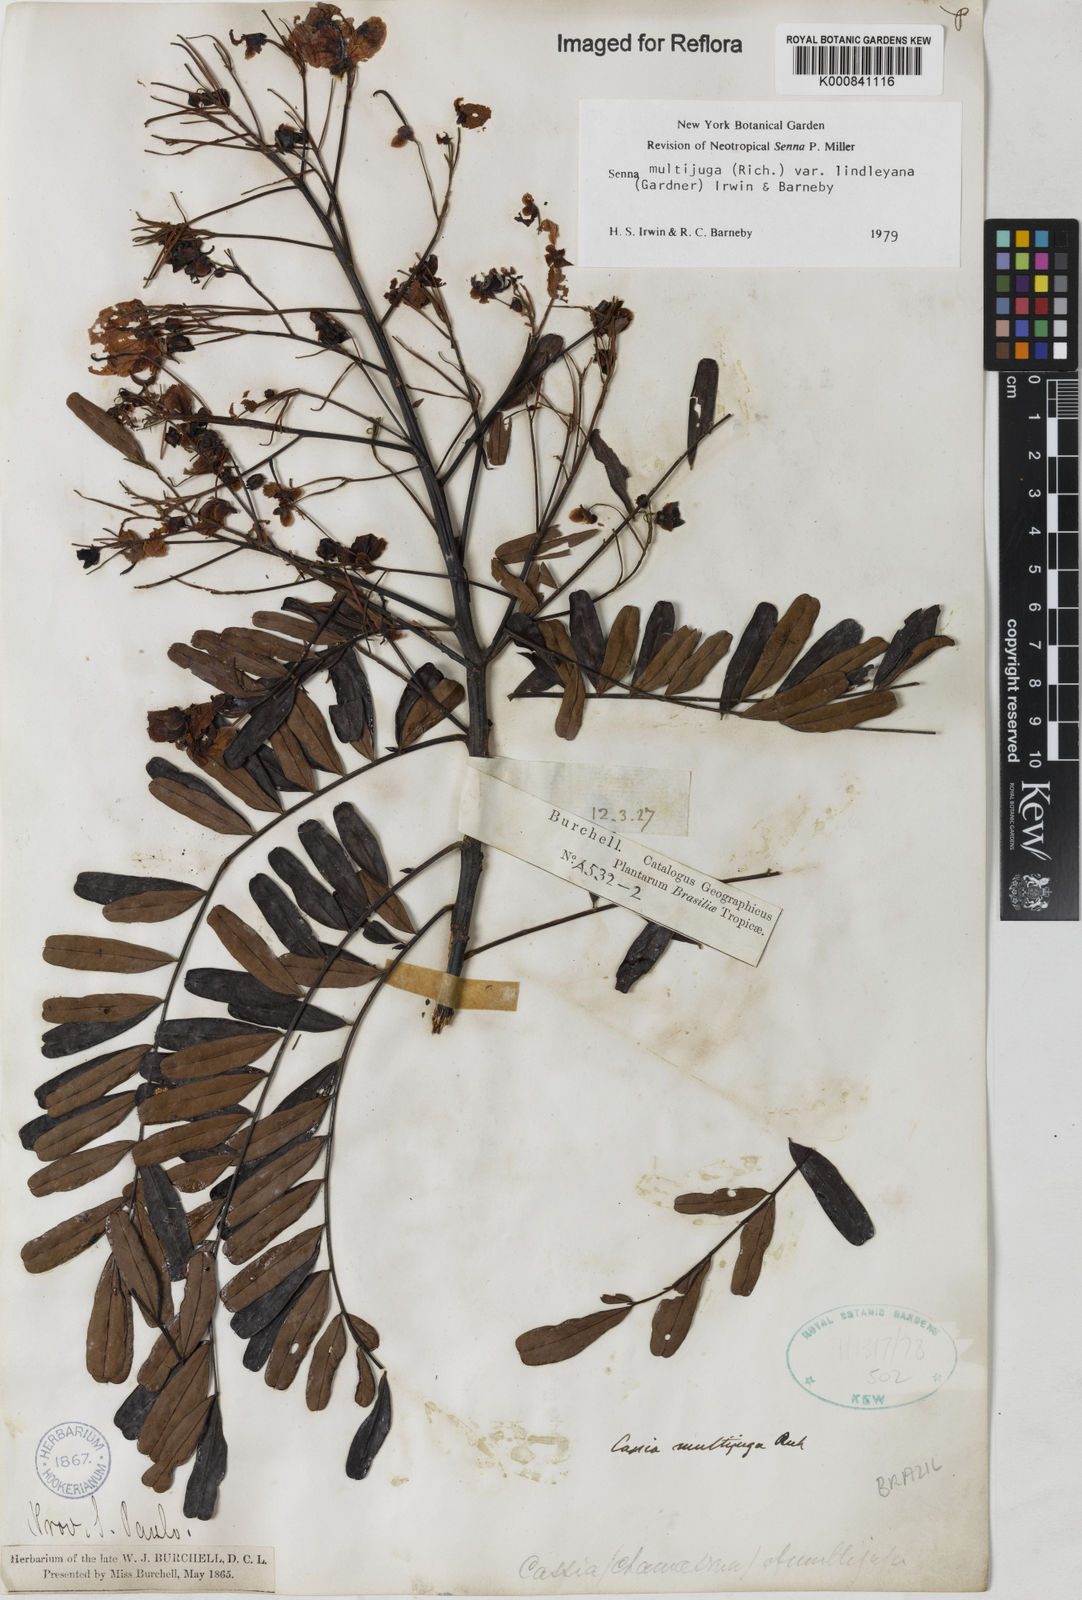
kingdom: Plantae
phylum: Tracheophyta
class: Magnoliopsida
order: Fabales
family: Fabaceae
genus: Senna
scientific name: Senna multijuga
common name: False sicklepod
